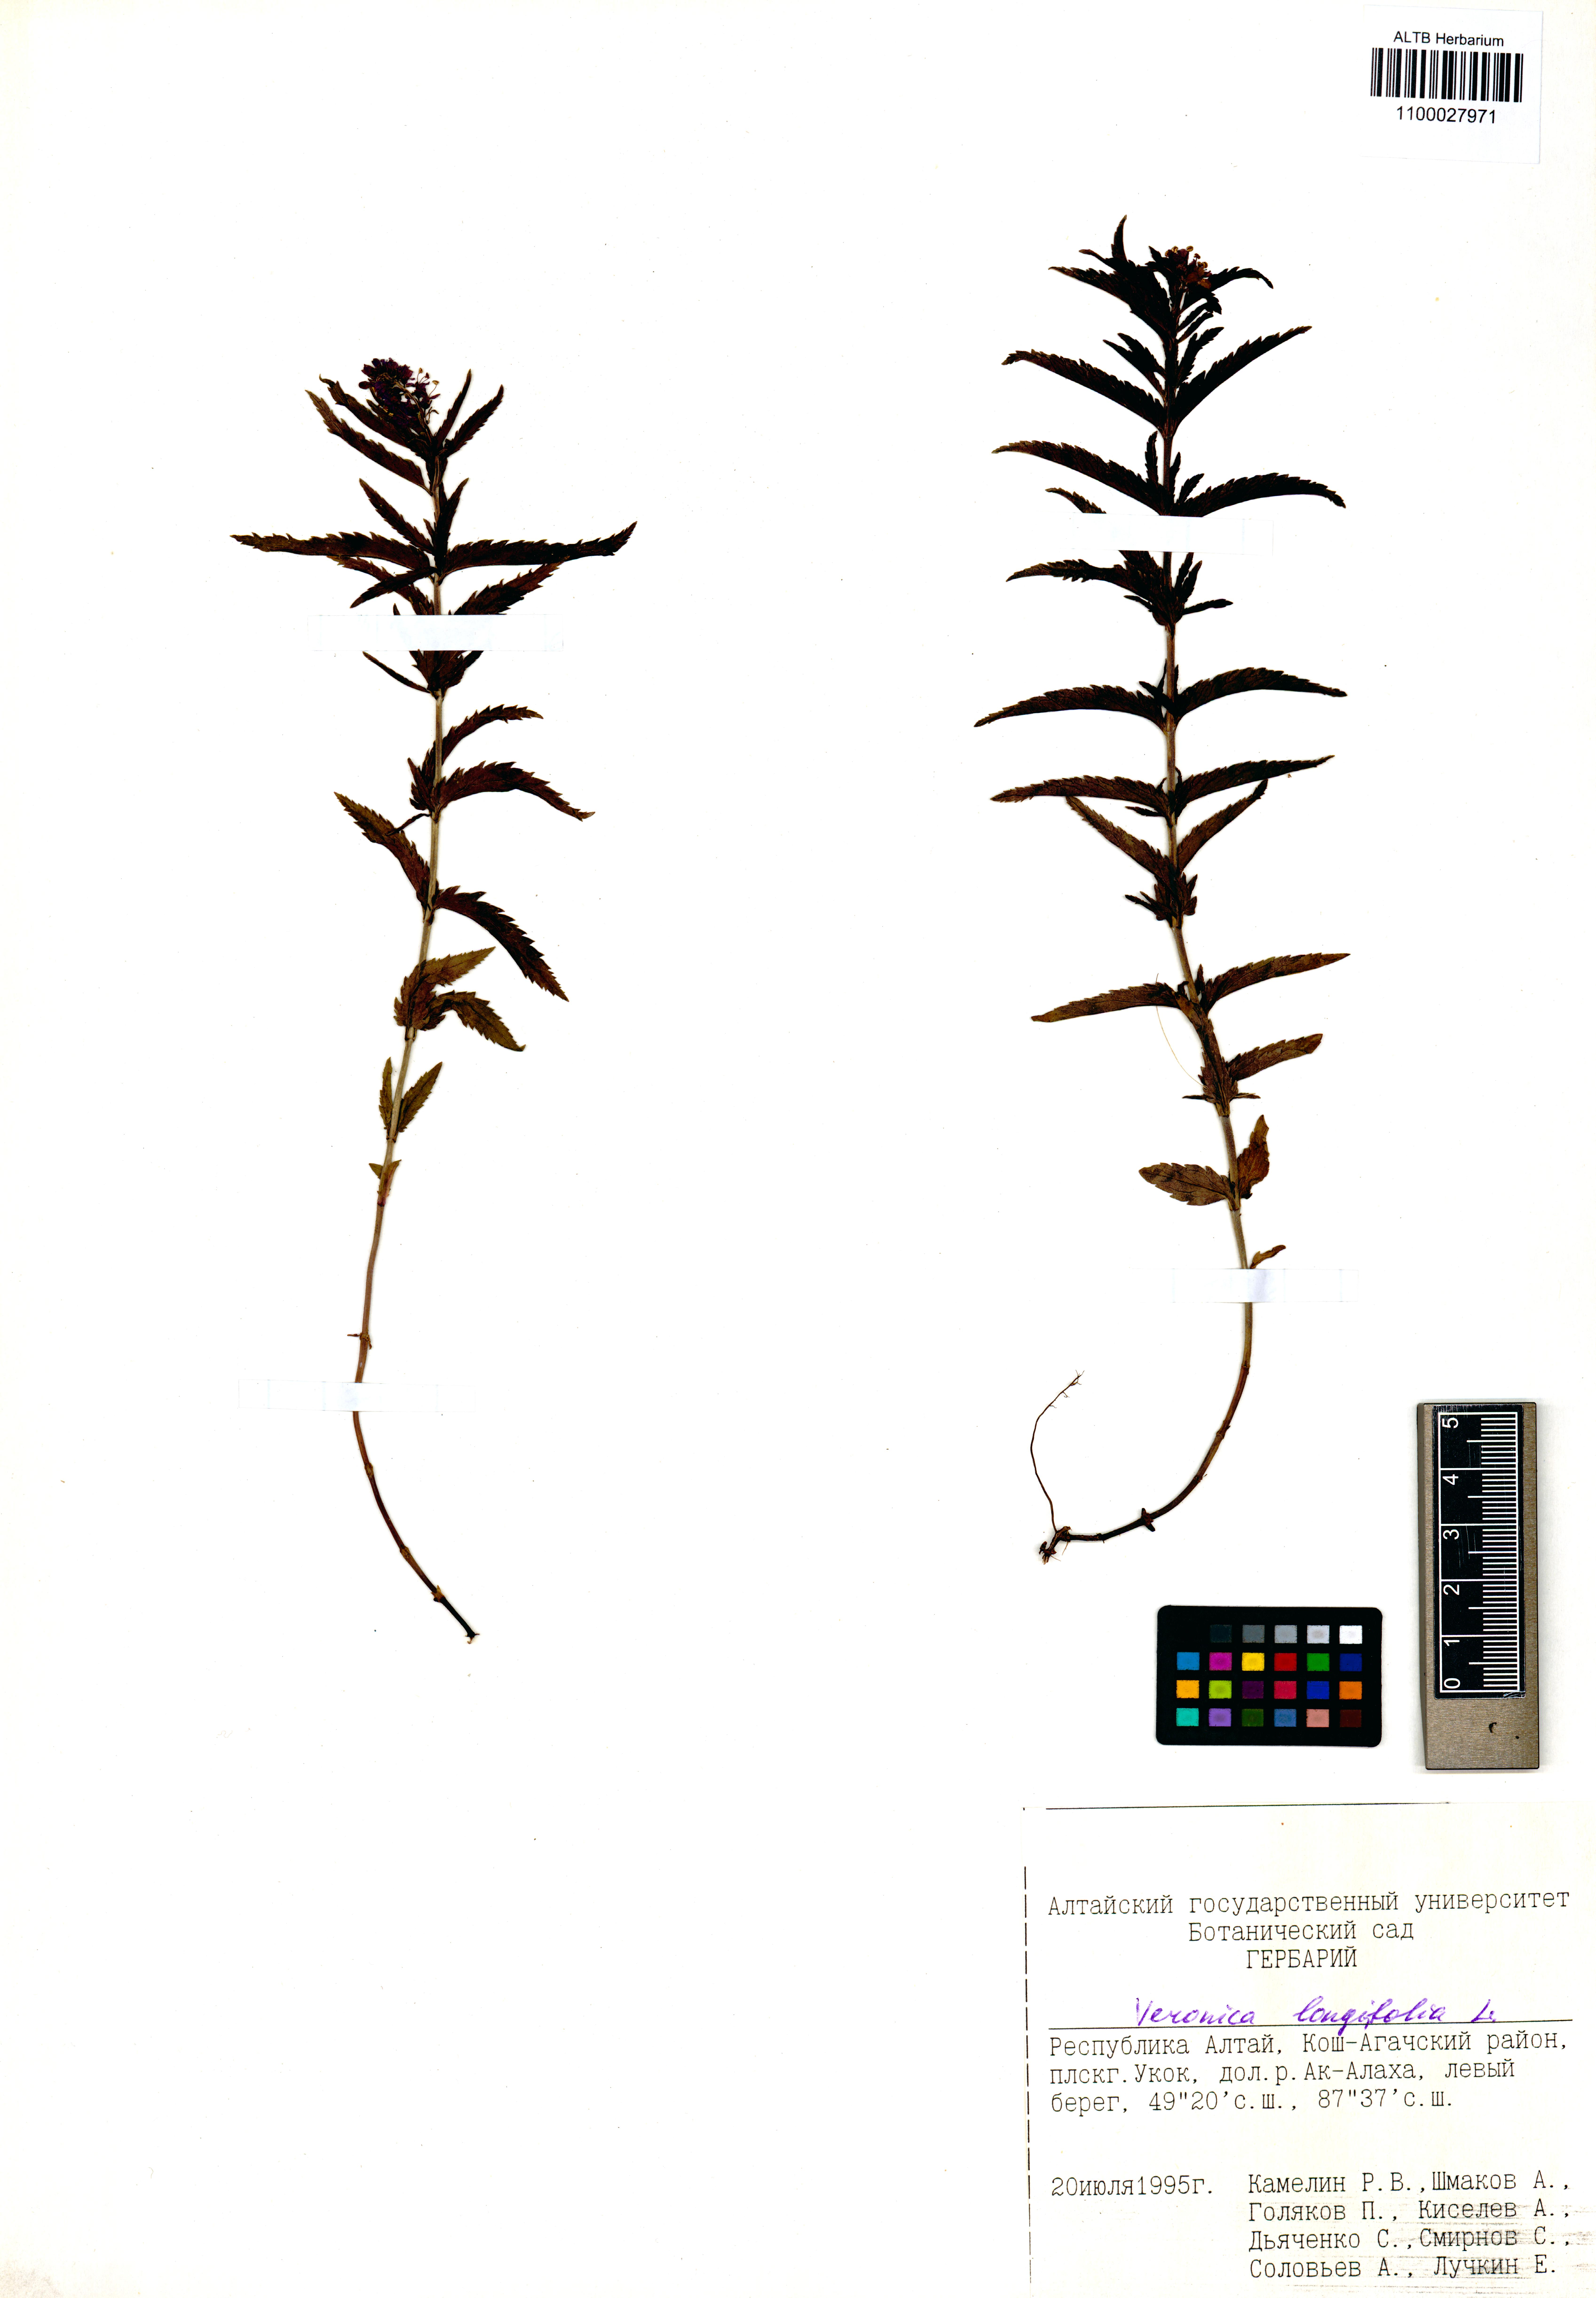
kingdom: Plantae
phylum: Tracheophyta
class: Magnoliopsida
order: Lamiales
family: Plantaginaceae
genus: Veronica
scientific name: Veronica longifolia
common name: Garden speedwell
